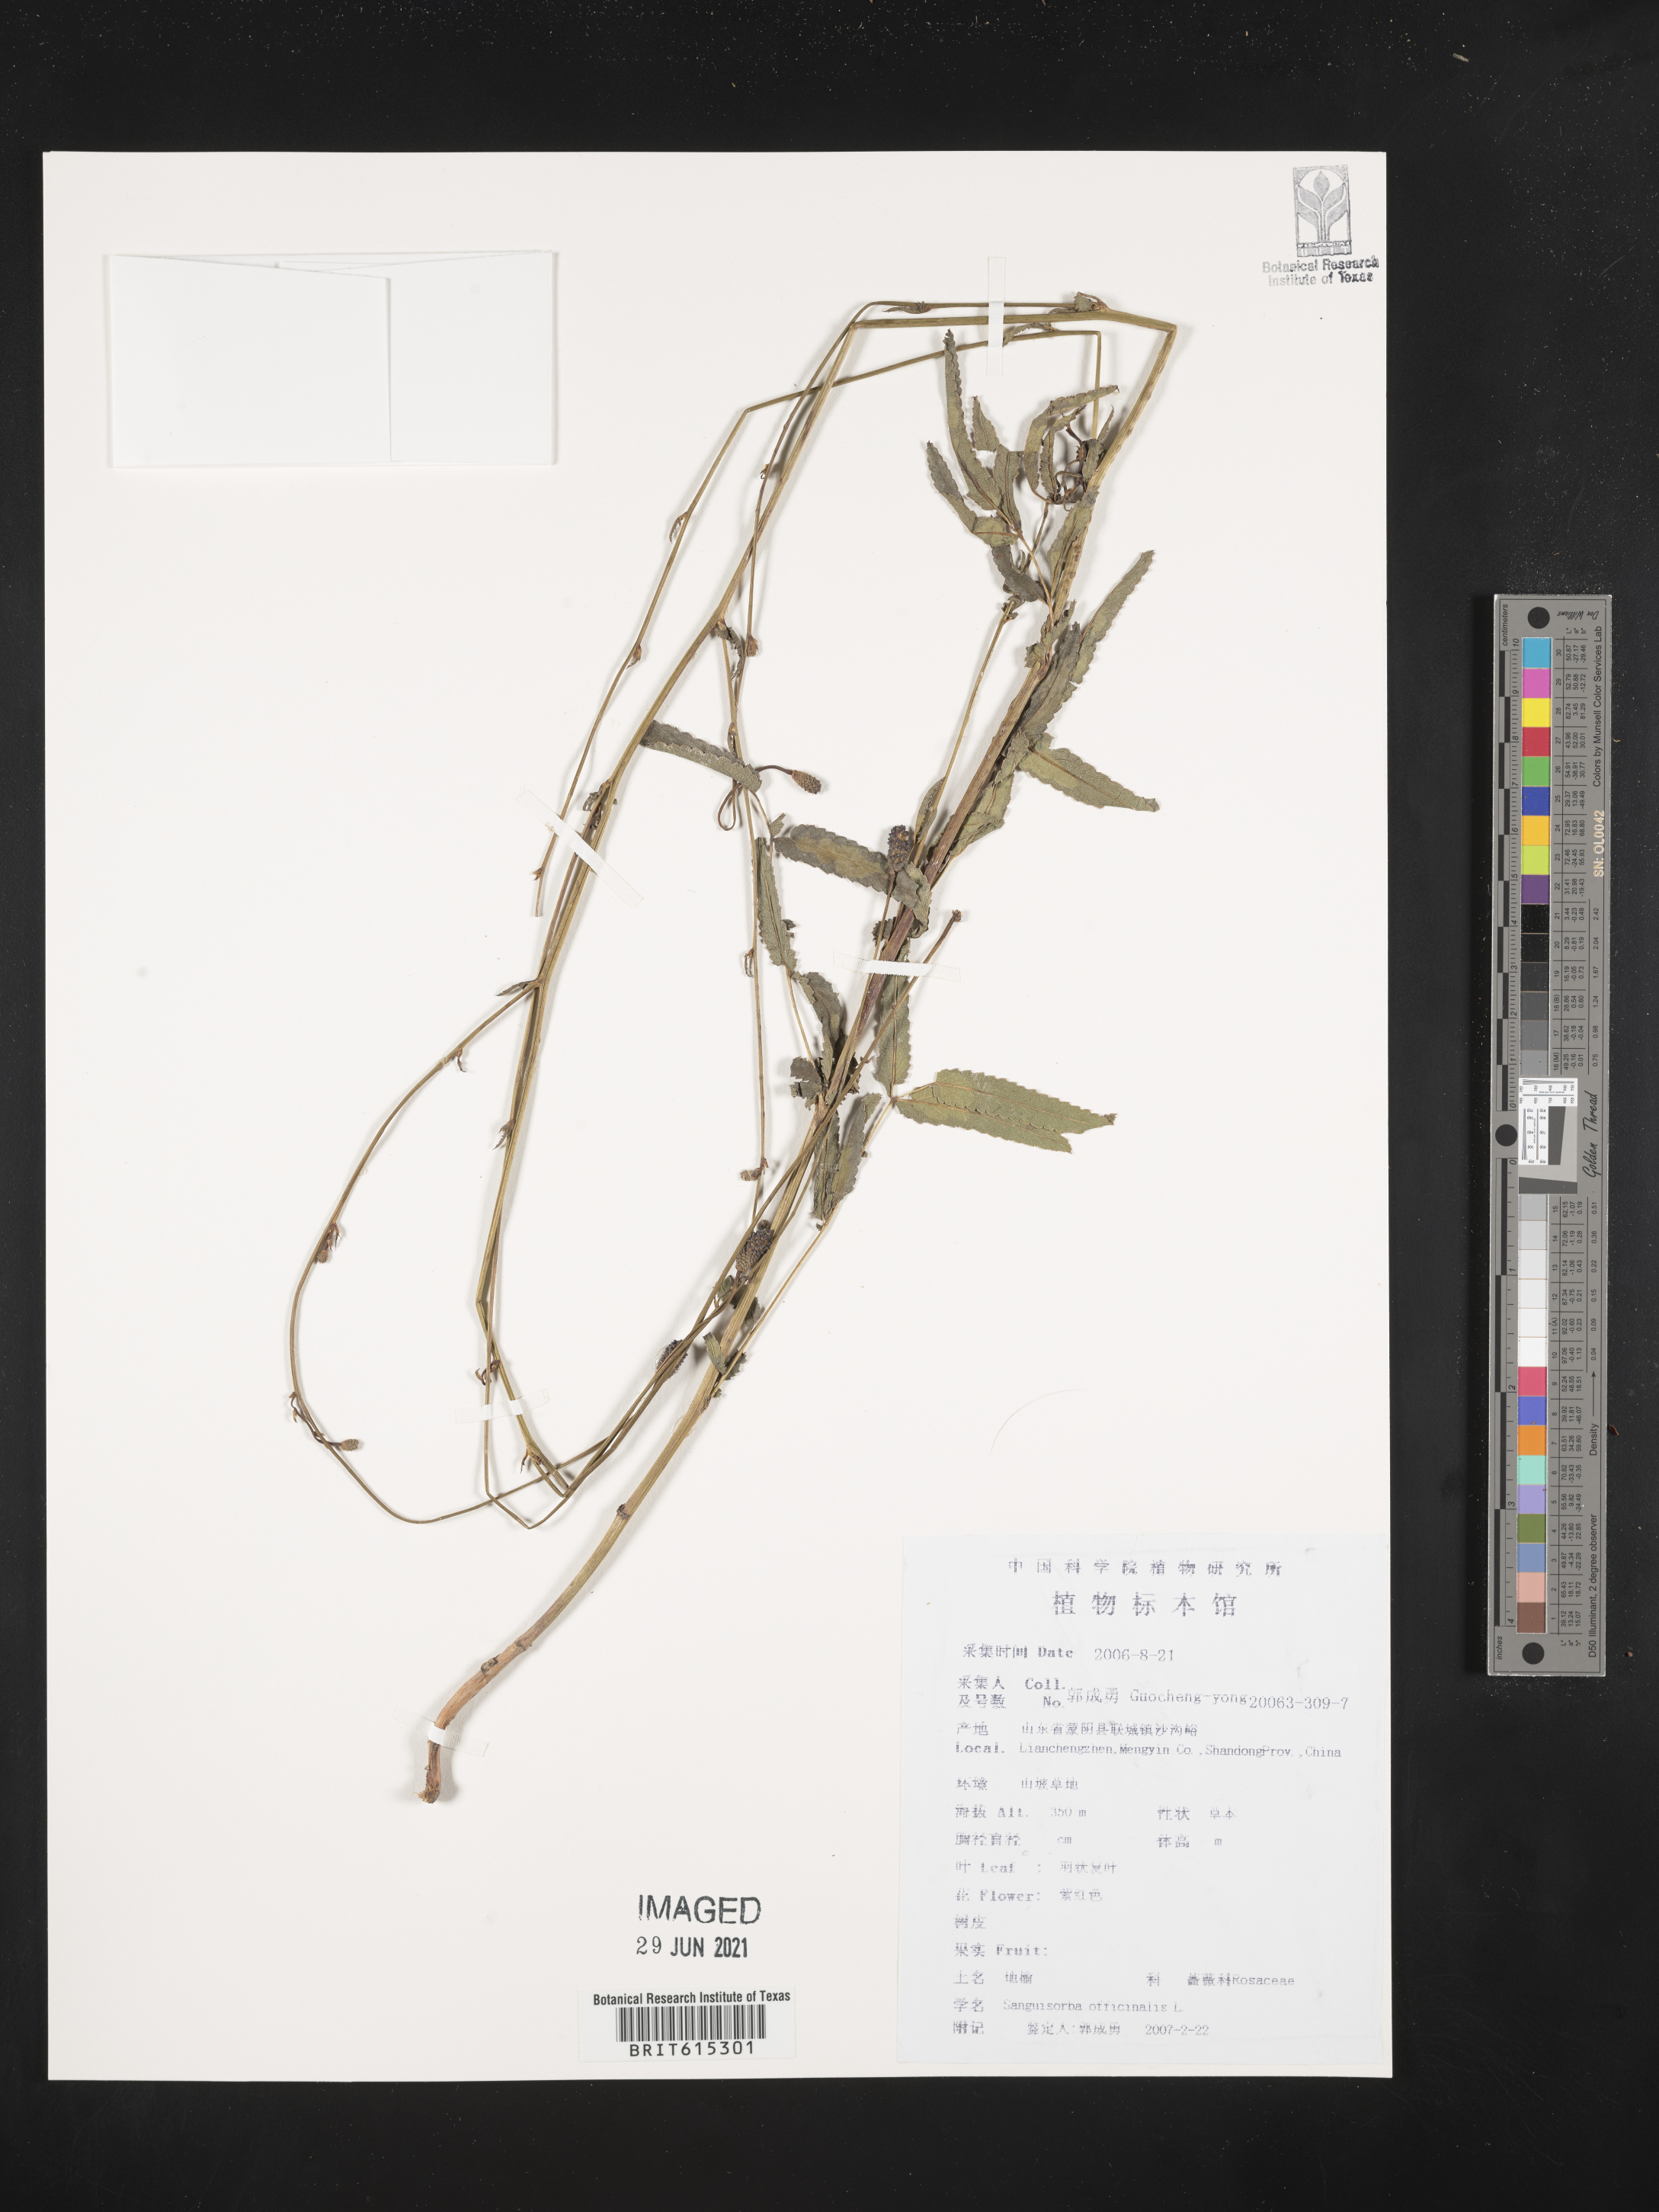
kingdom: Plantae
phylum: Tracheophyta
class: Magnoliopsida
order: Rosales
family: Rosaceae
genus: Sanguisorba
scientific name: Sanguisorba officinalis
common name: Great burnet
